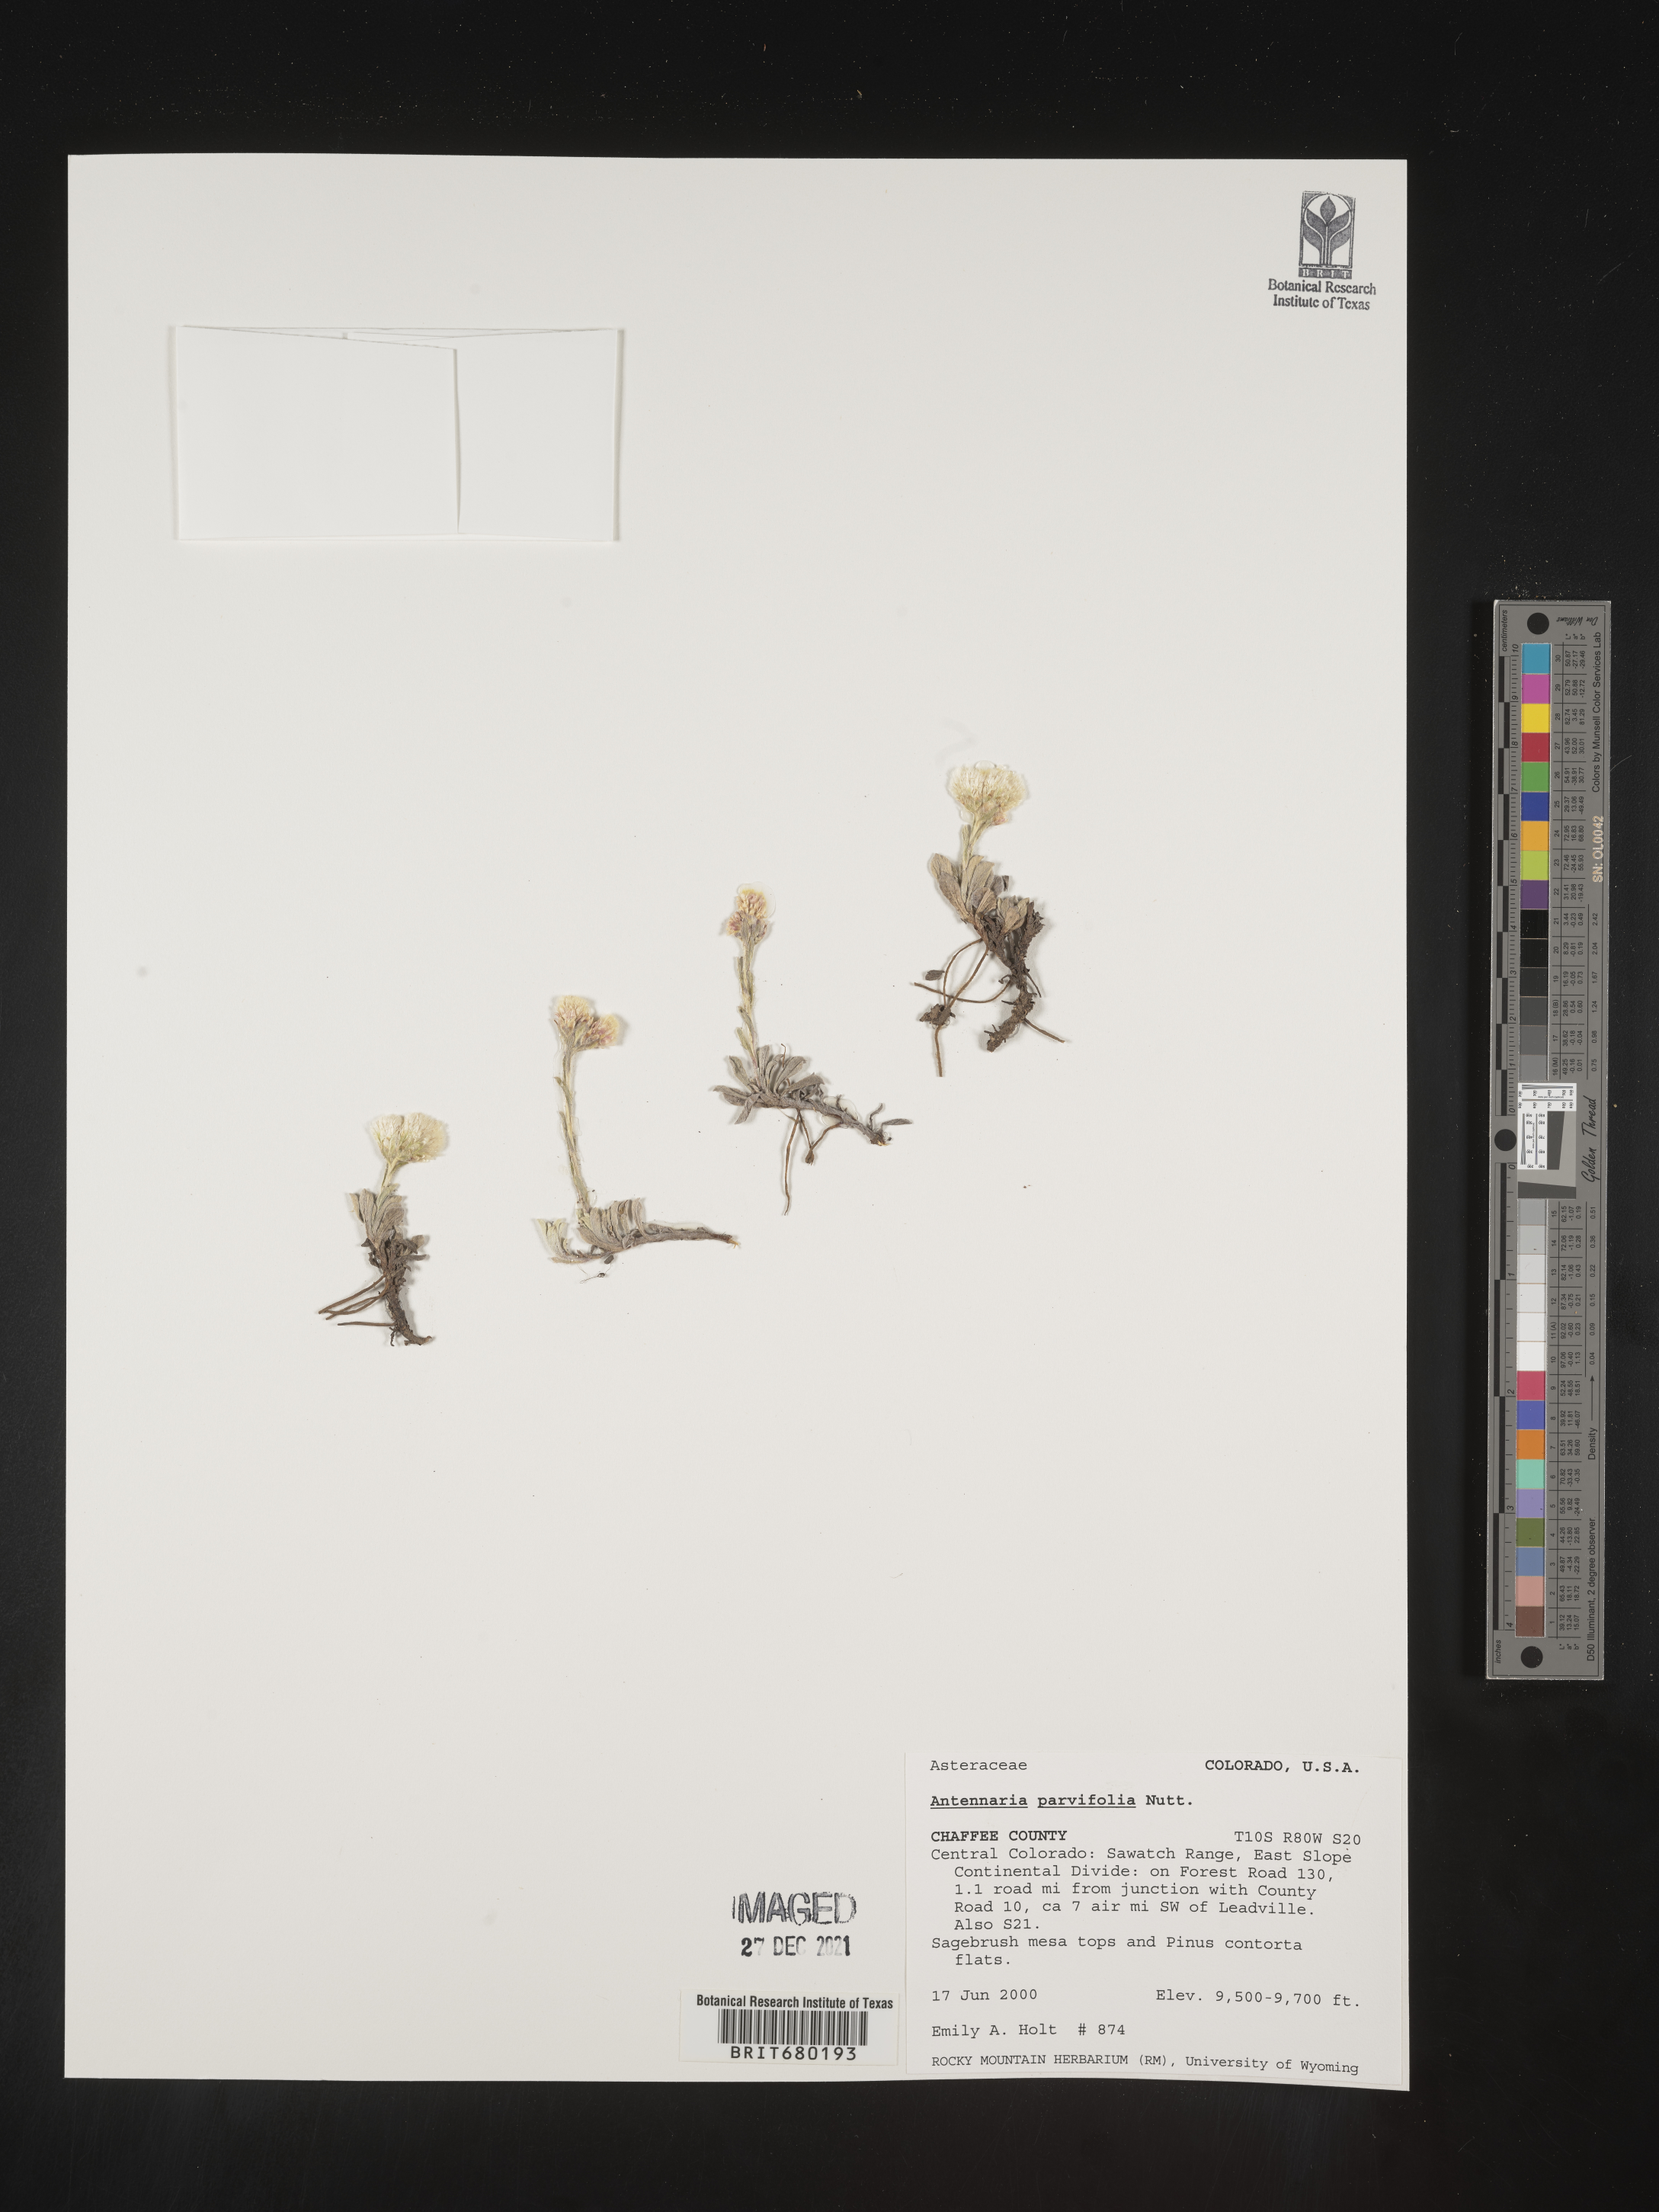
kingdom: Plantae
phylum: Tracheophyta
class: Magnoliopsida
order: Asterales
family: Asteraceae
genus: Antennaria
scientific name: Antennaria plantaginifolia
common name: Plantain-leaved pussytoes
